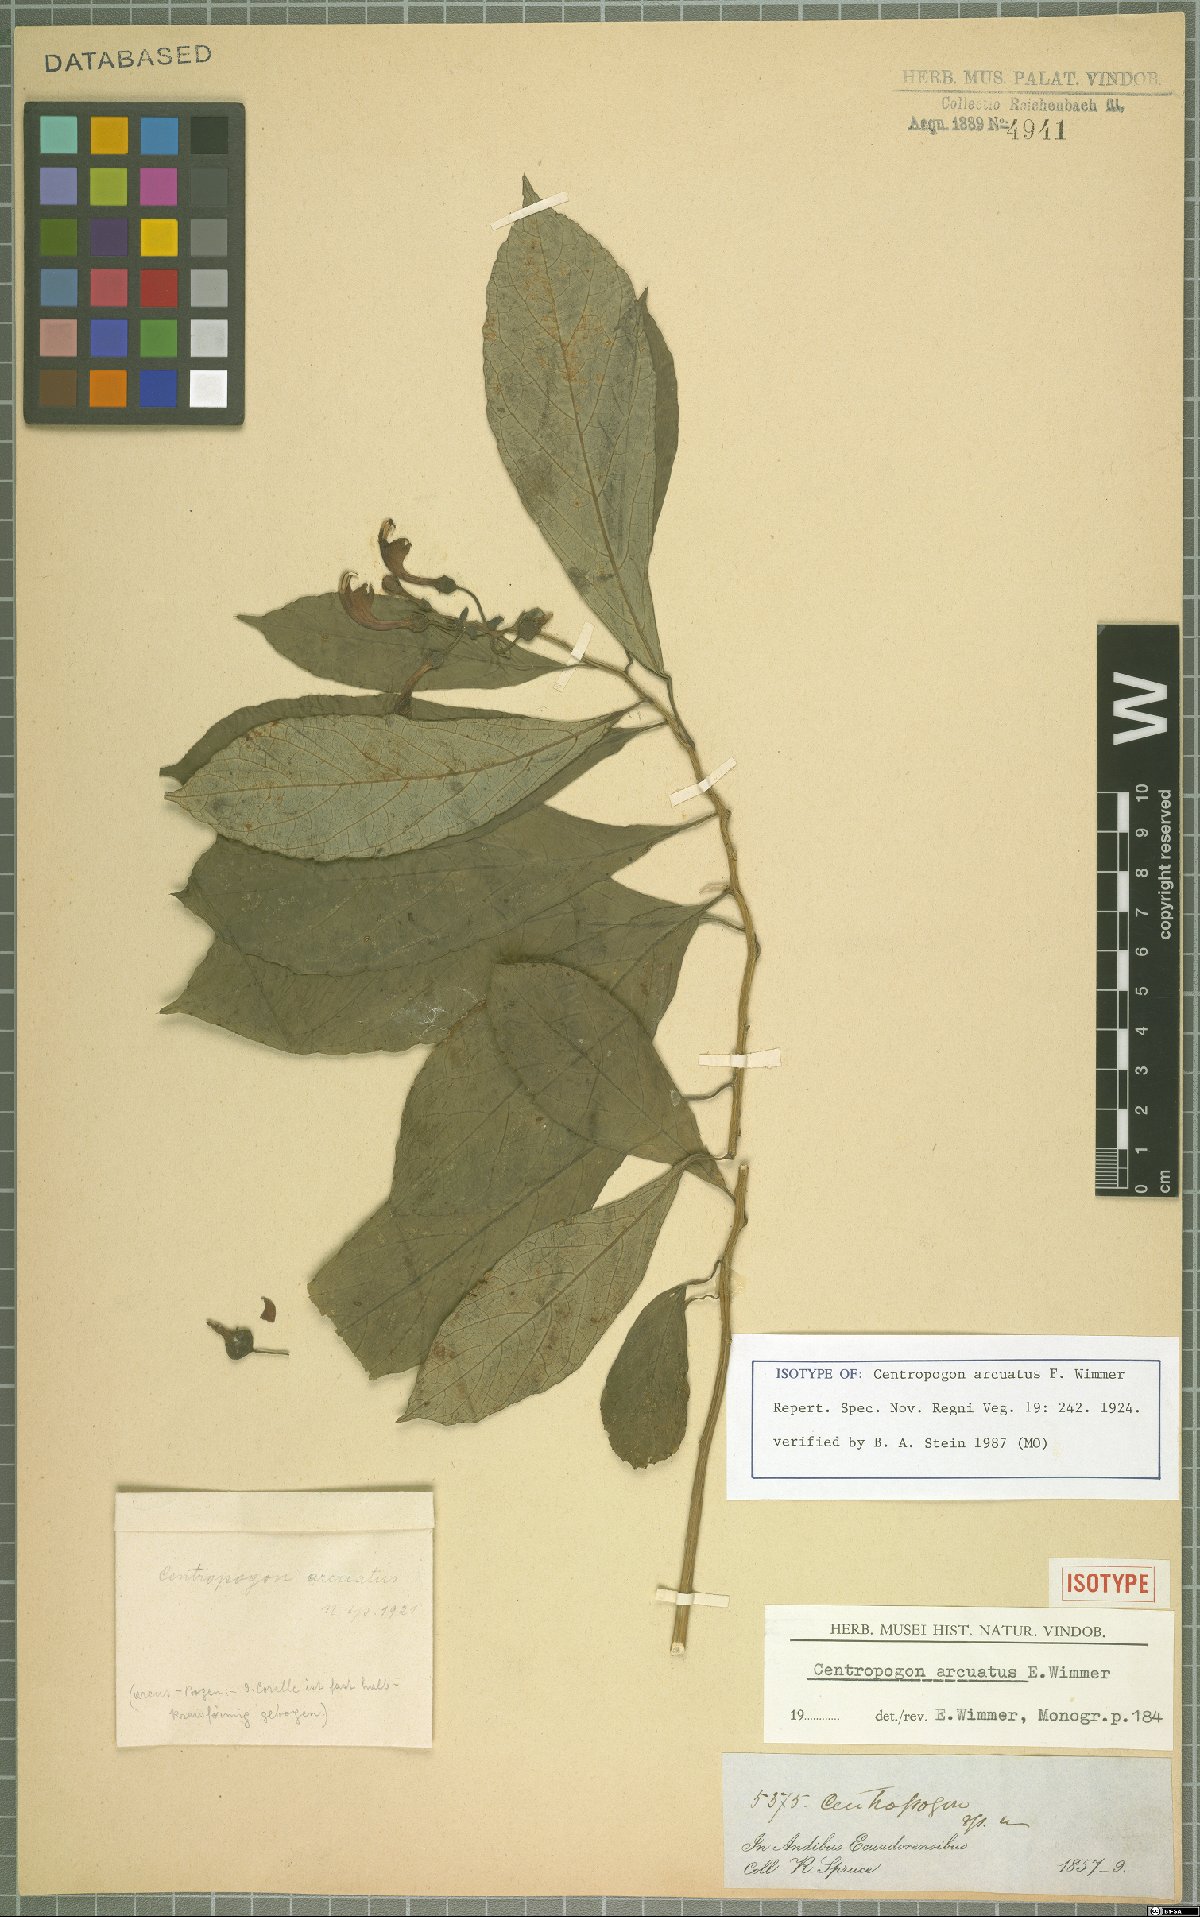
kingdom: Plantae
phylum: Tracheophyta
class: Magnoliopsida
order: Asterales
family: Campanulaceae
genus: Centropogon
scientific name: Centropogon arcuatus
